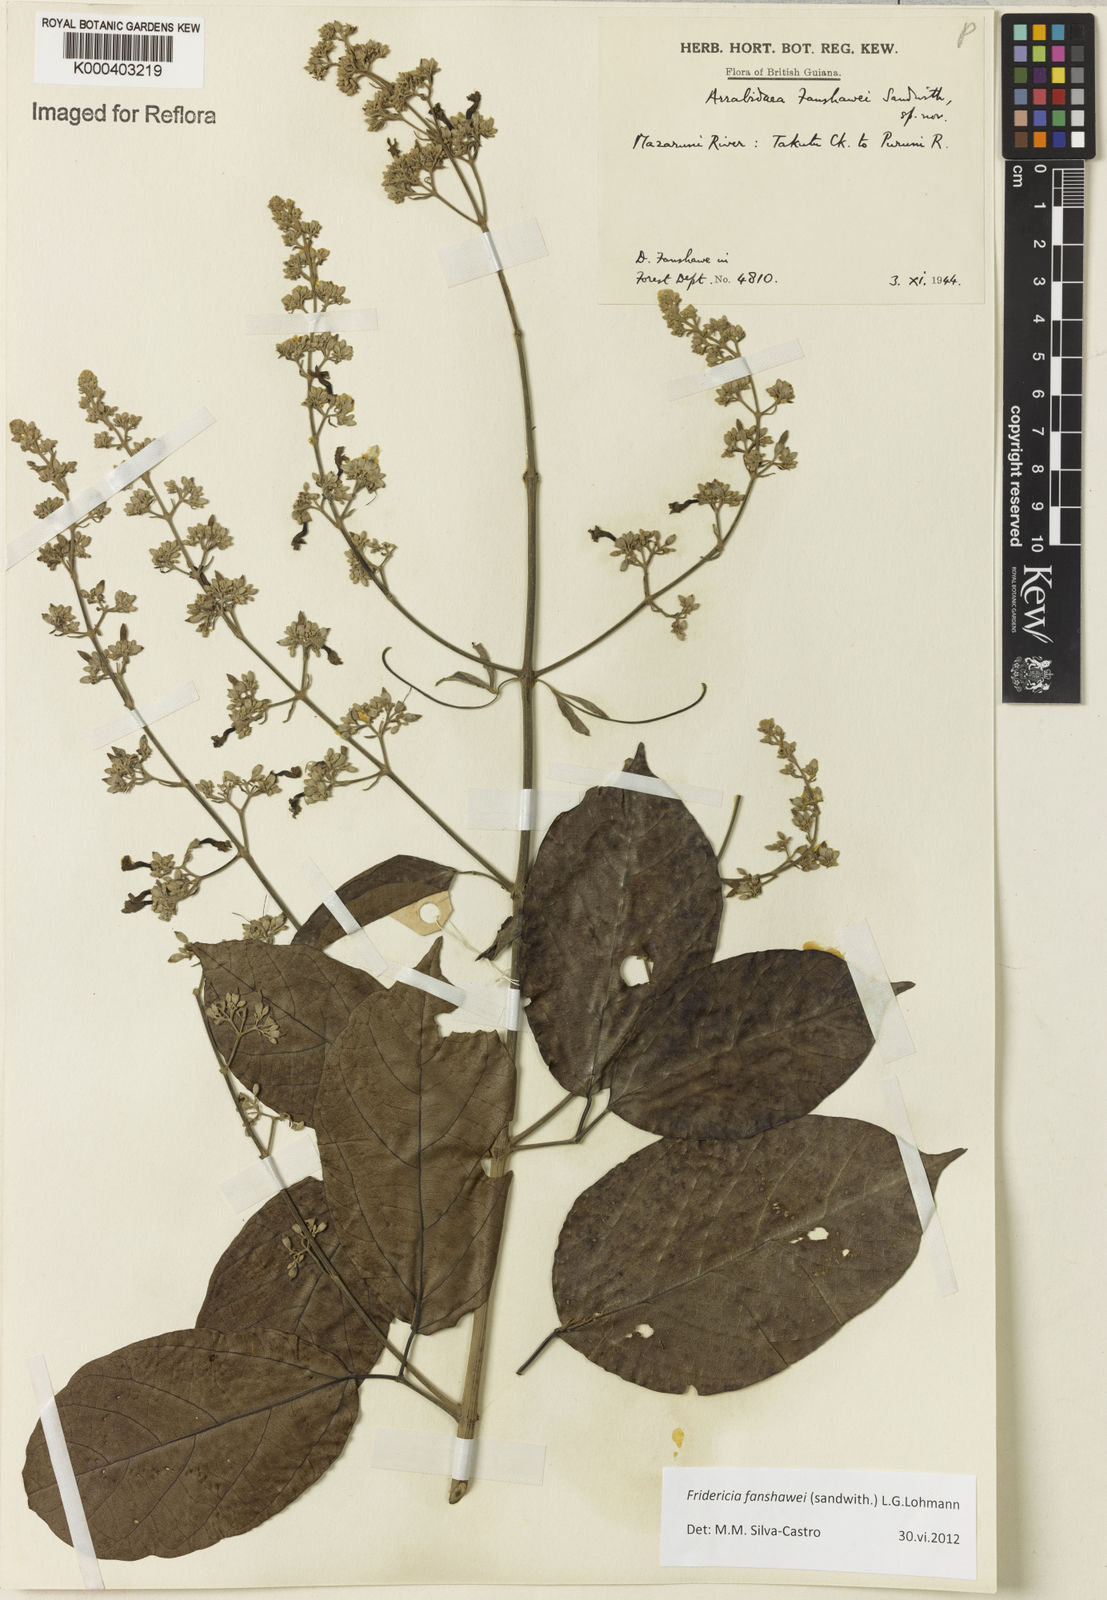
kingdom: Plantae
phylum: Tracheophyta
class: Magnoliopsida
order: Lamiales
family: Bignoniaceae
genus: Fridericia
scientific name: Fridericia fanshawei
